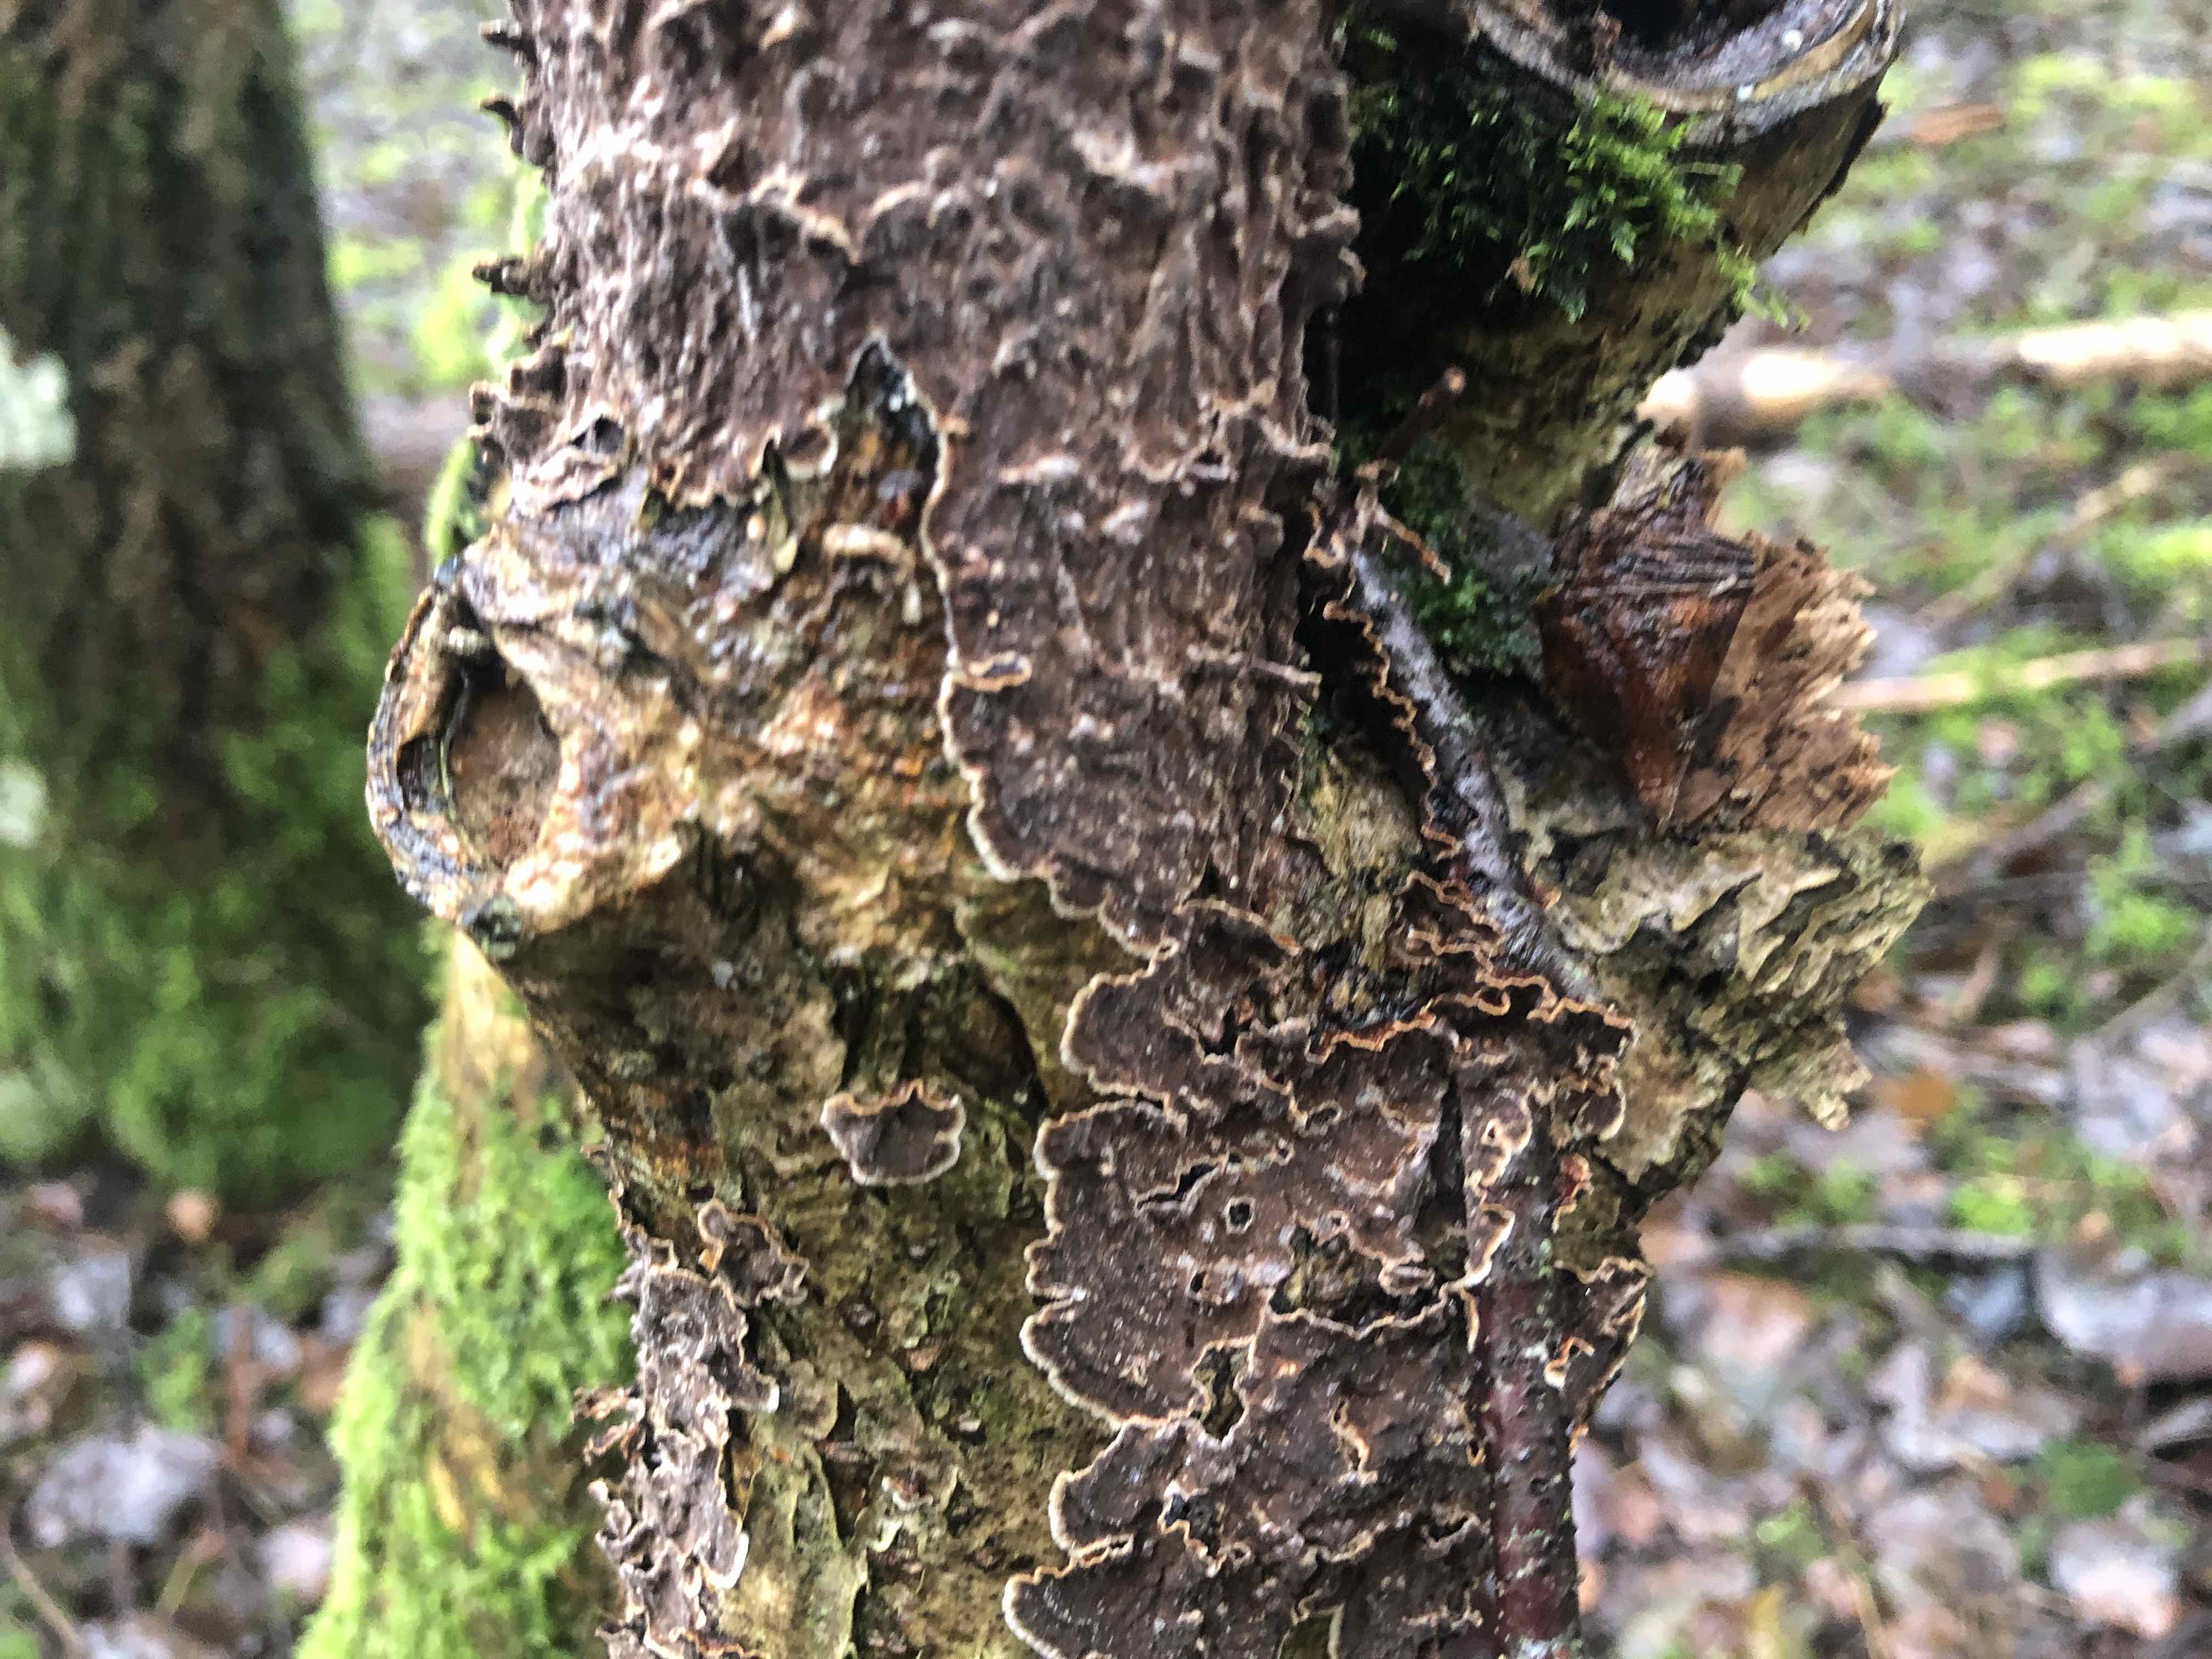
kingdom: Fungi
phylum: Basidiomycota
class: Agaricomycetes
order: Hymenochaetales
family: Hymenochaetaceae
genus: Hydnoporia
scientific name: Hydnoporia tabacina
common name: tobaksbrun ruslædersvamp
